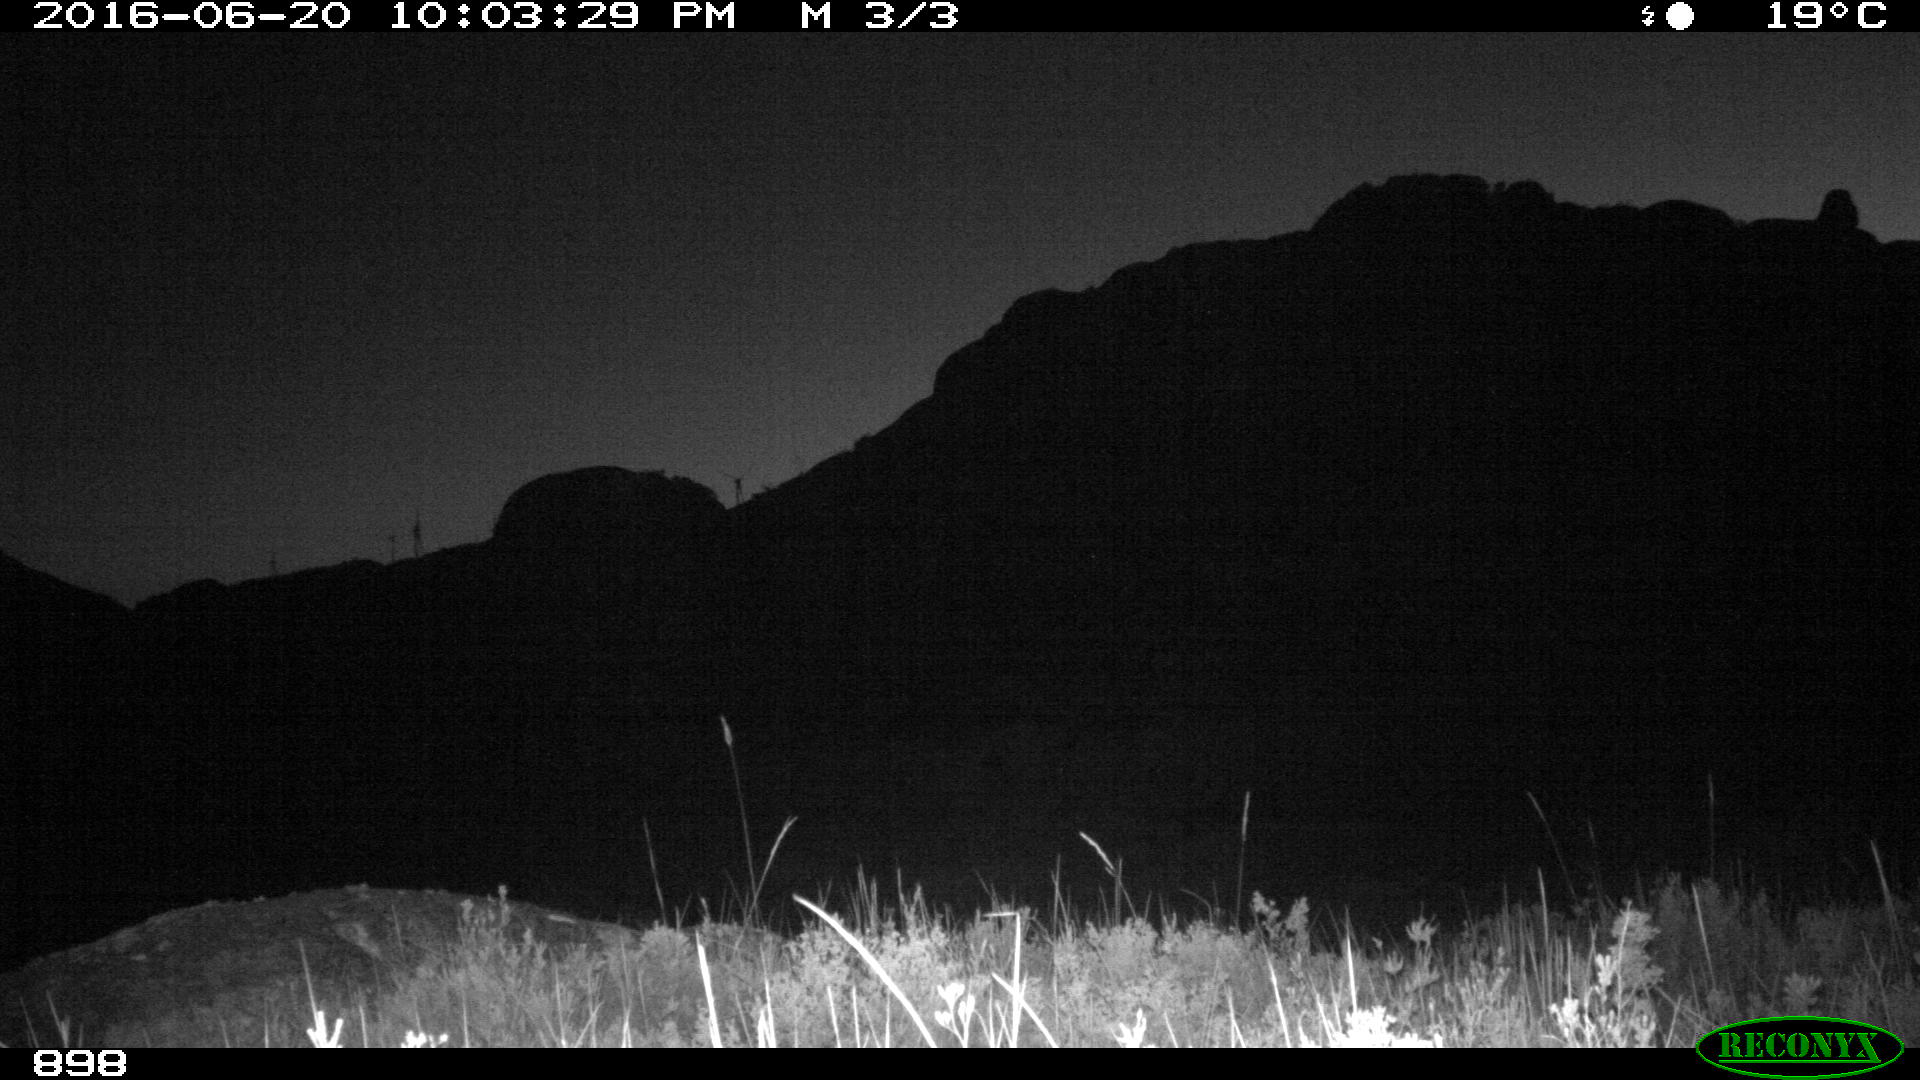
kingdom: Animalia
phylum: Chordata
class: Mammalia
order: Artiodactyla
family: Cervidae
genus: Capreolus
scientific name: Capreolus capreolus
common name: Western roe deer
